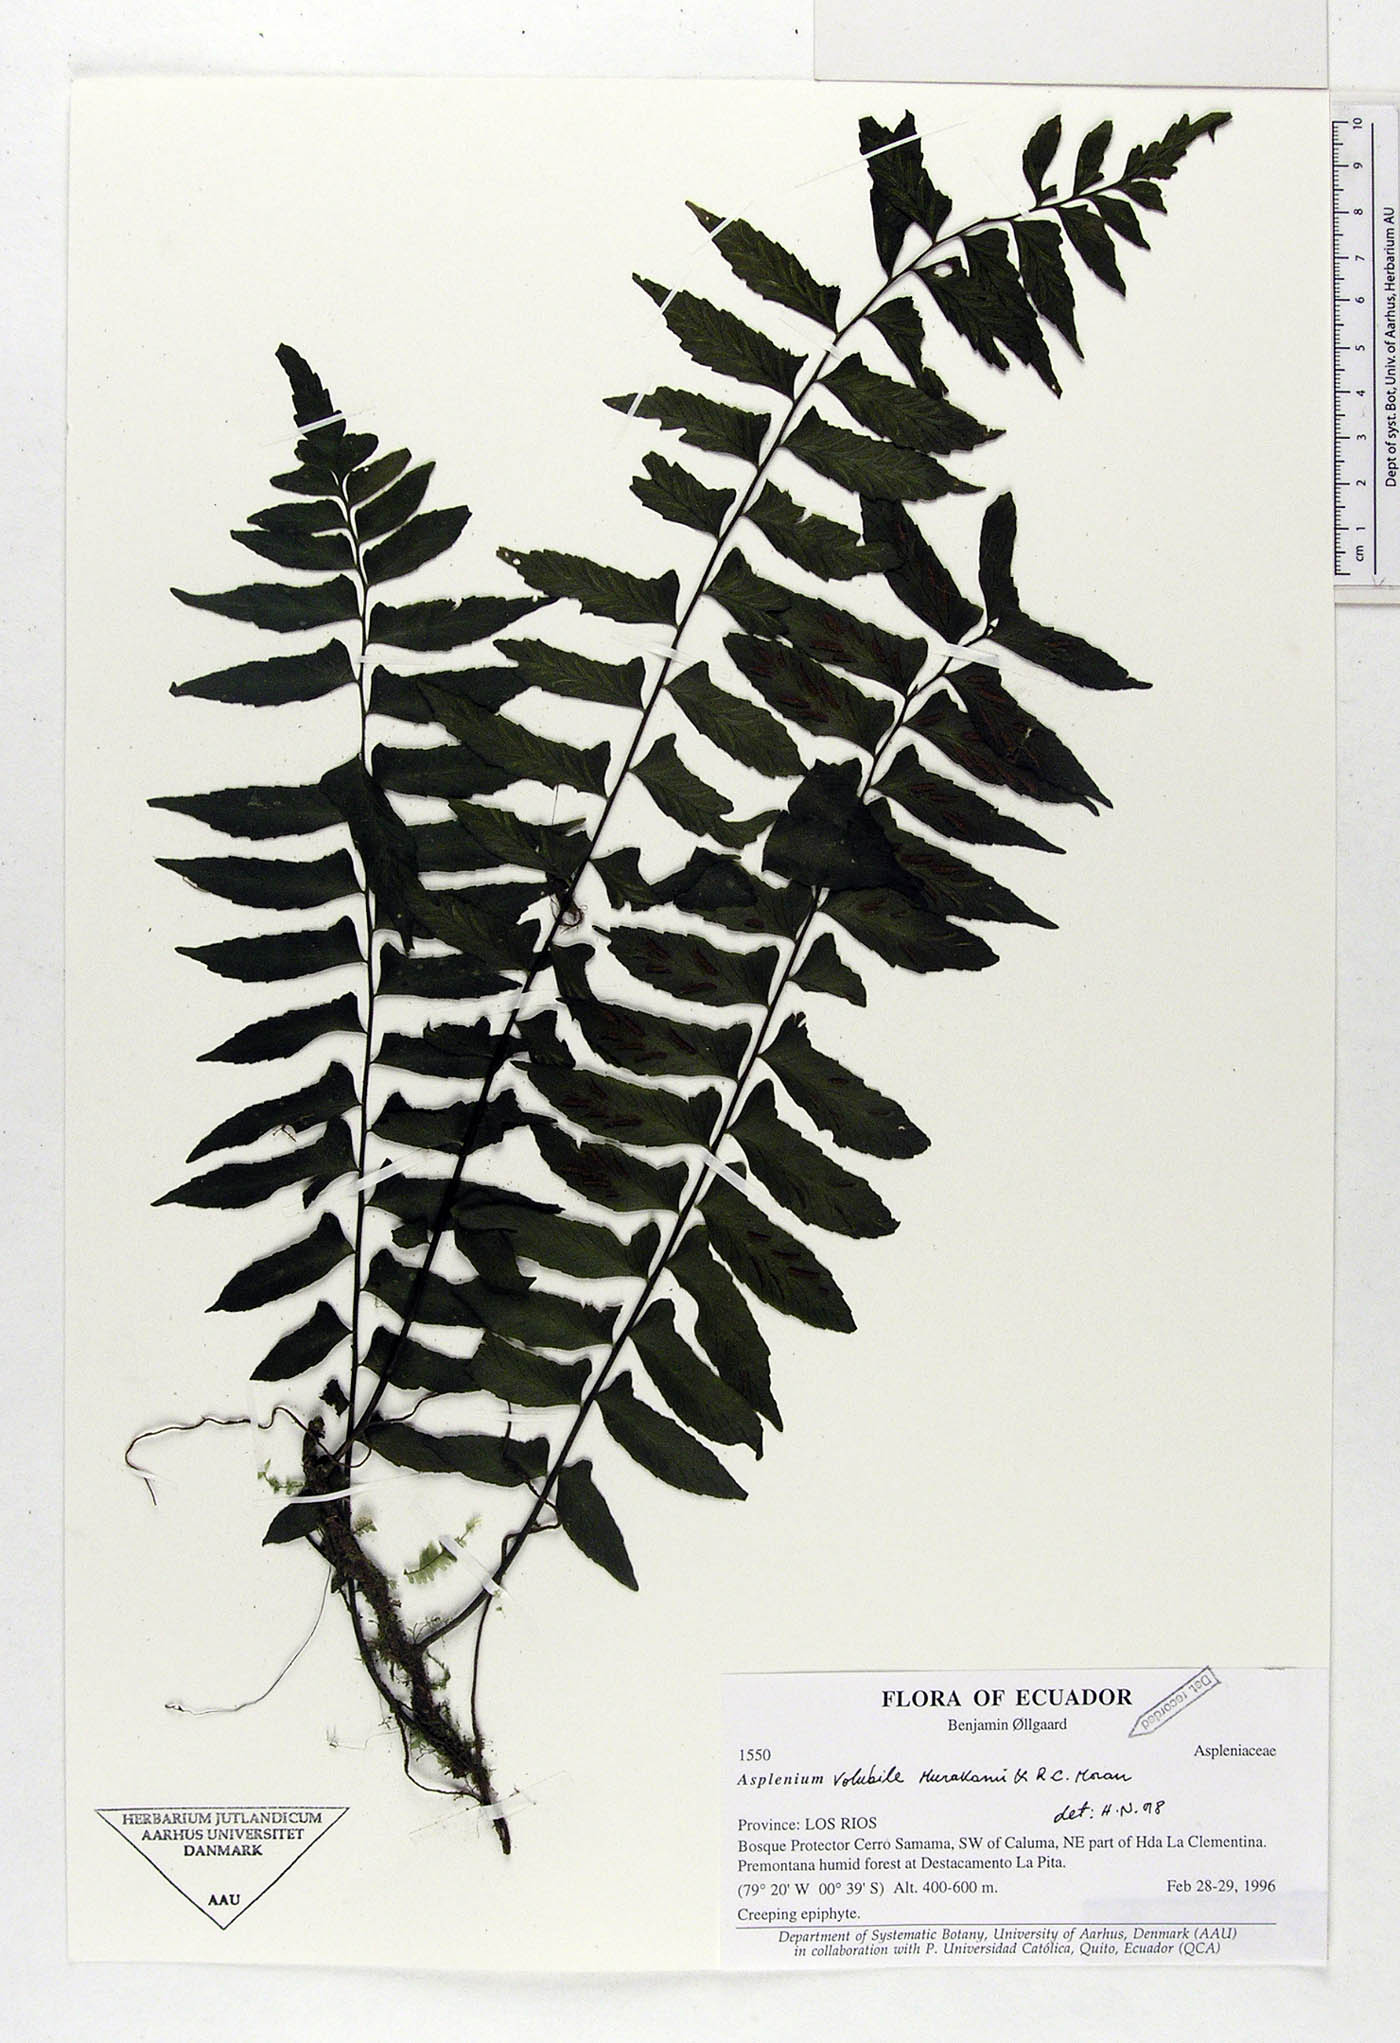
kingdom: Plantae
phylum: Tracheophyta
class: Polypodiopsida
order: Polypodiales
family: Aspleniaceae
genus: Hymenasplenium
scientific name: Hymenasplenium volubile
